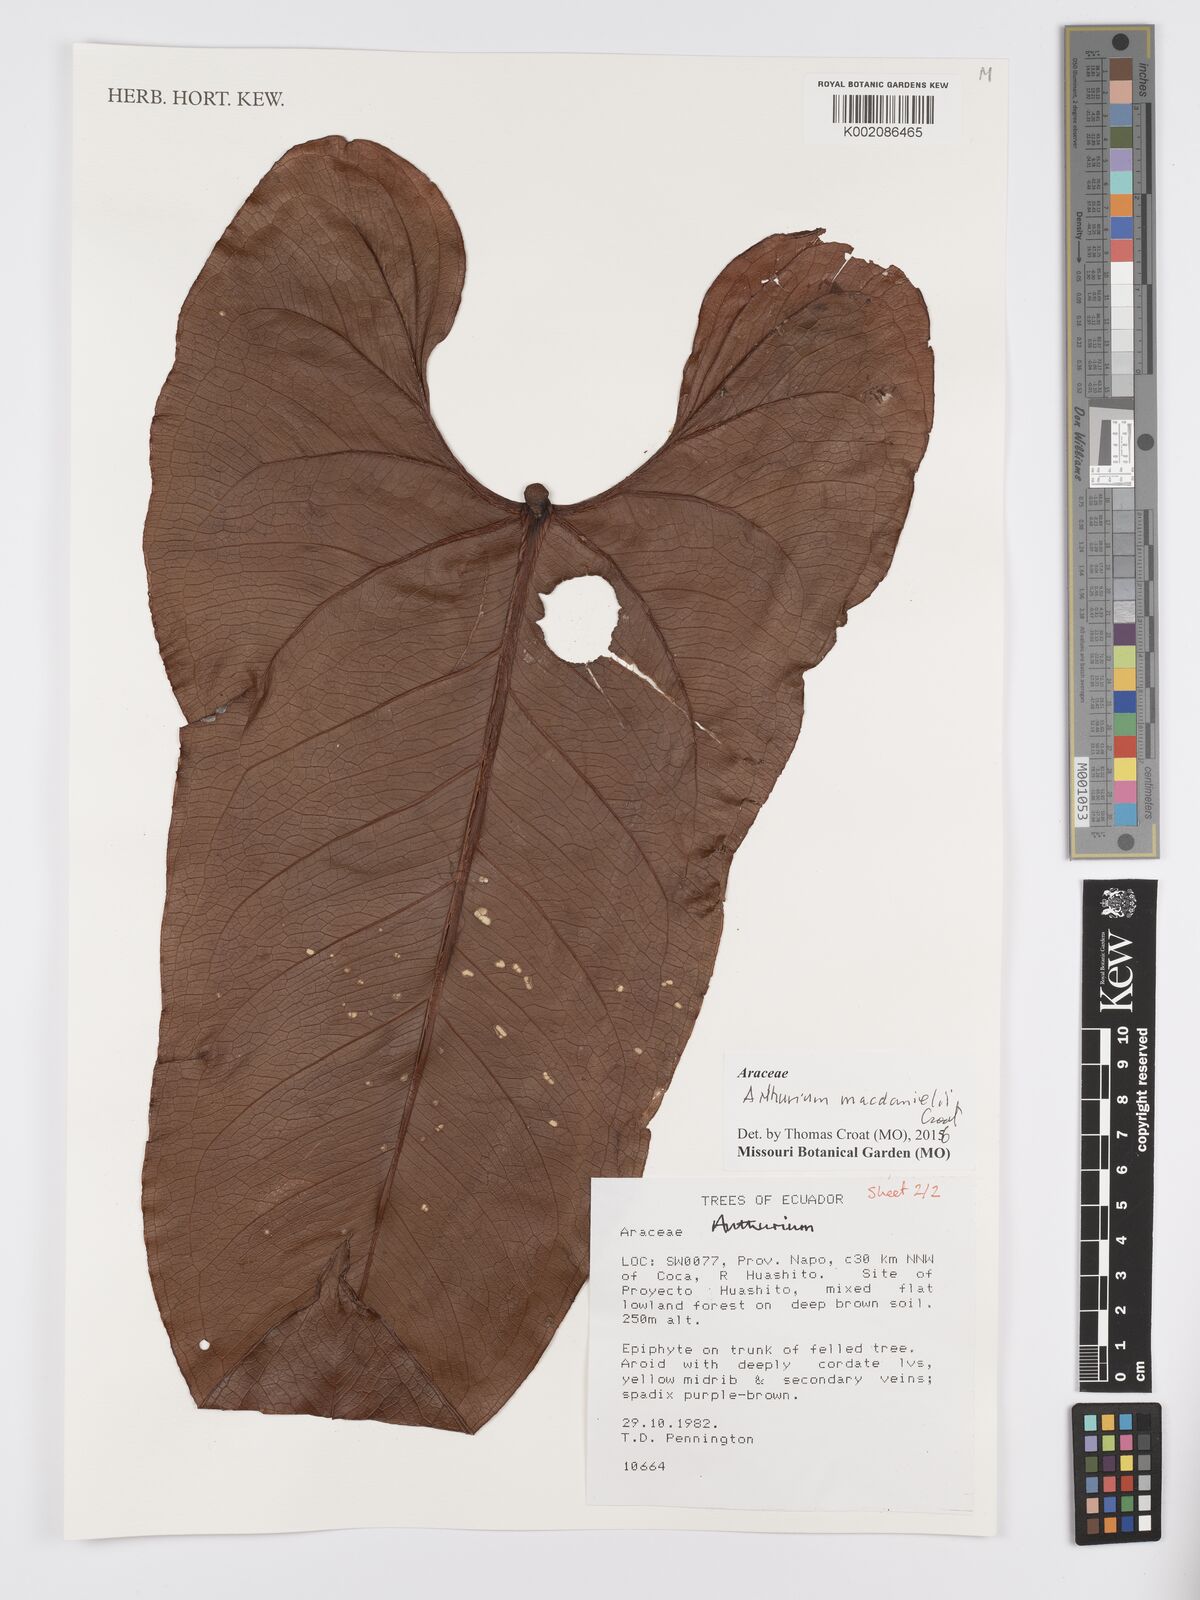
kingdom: Plantae
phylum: Tracheophyta
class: Liliopsida
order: Alismatales
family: Araceae
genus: Anthurium
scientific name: Anthurium macdanielii
